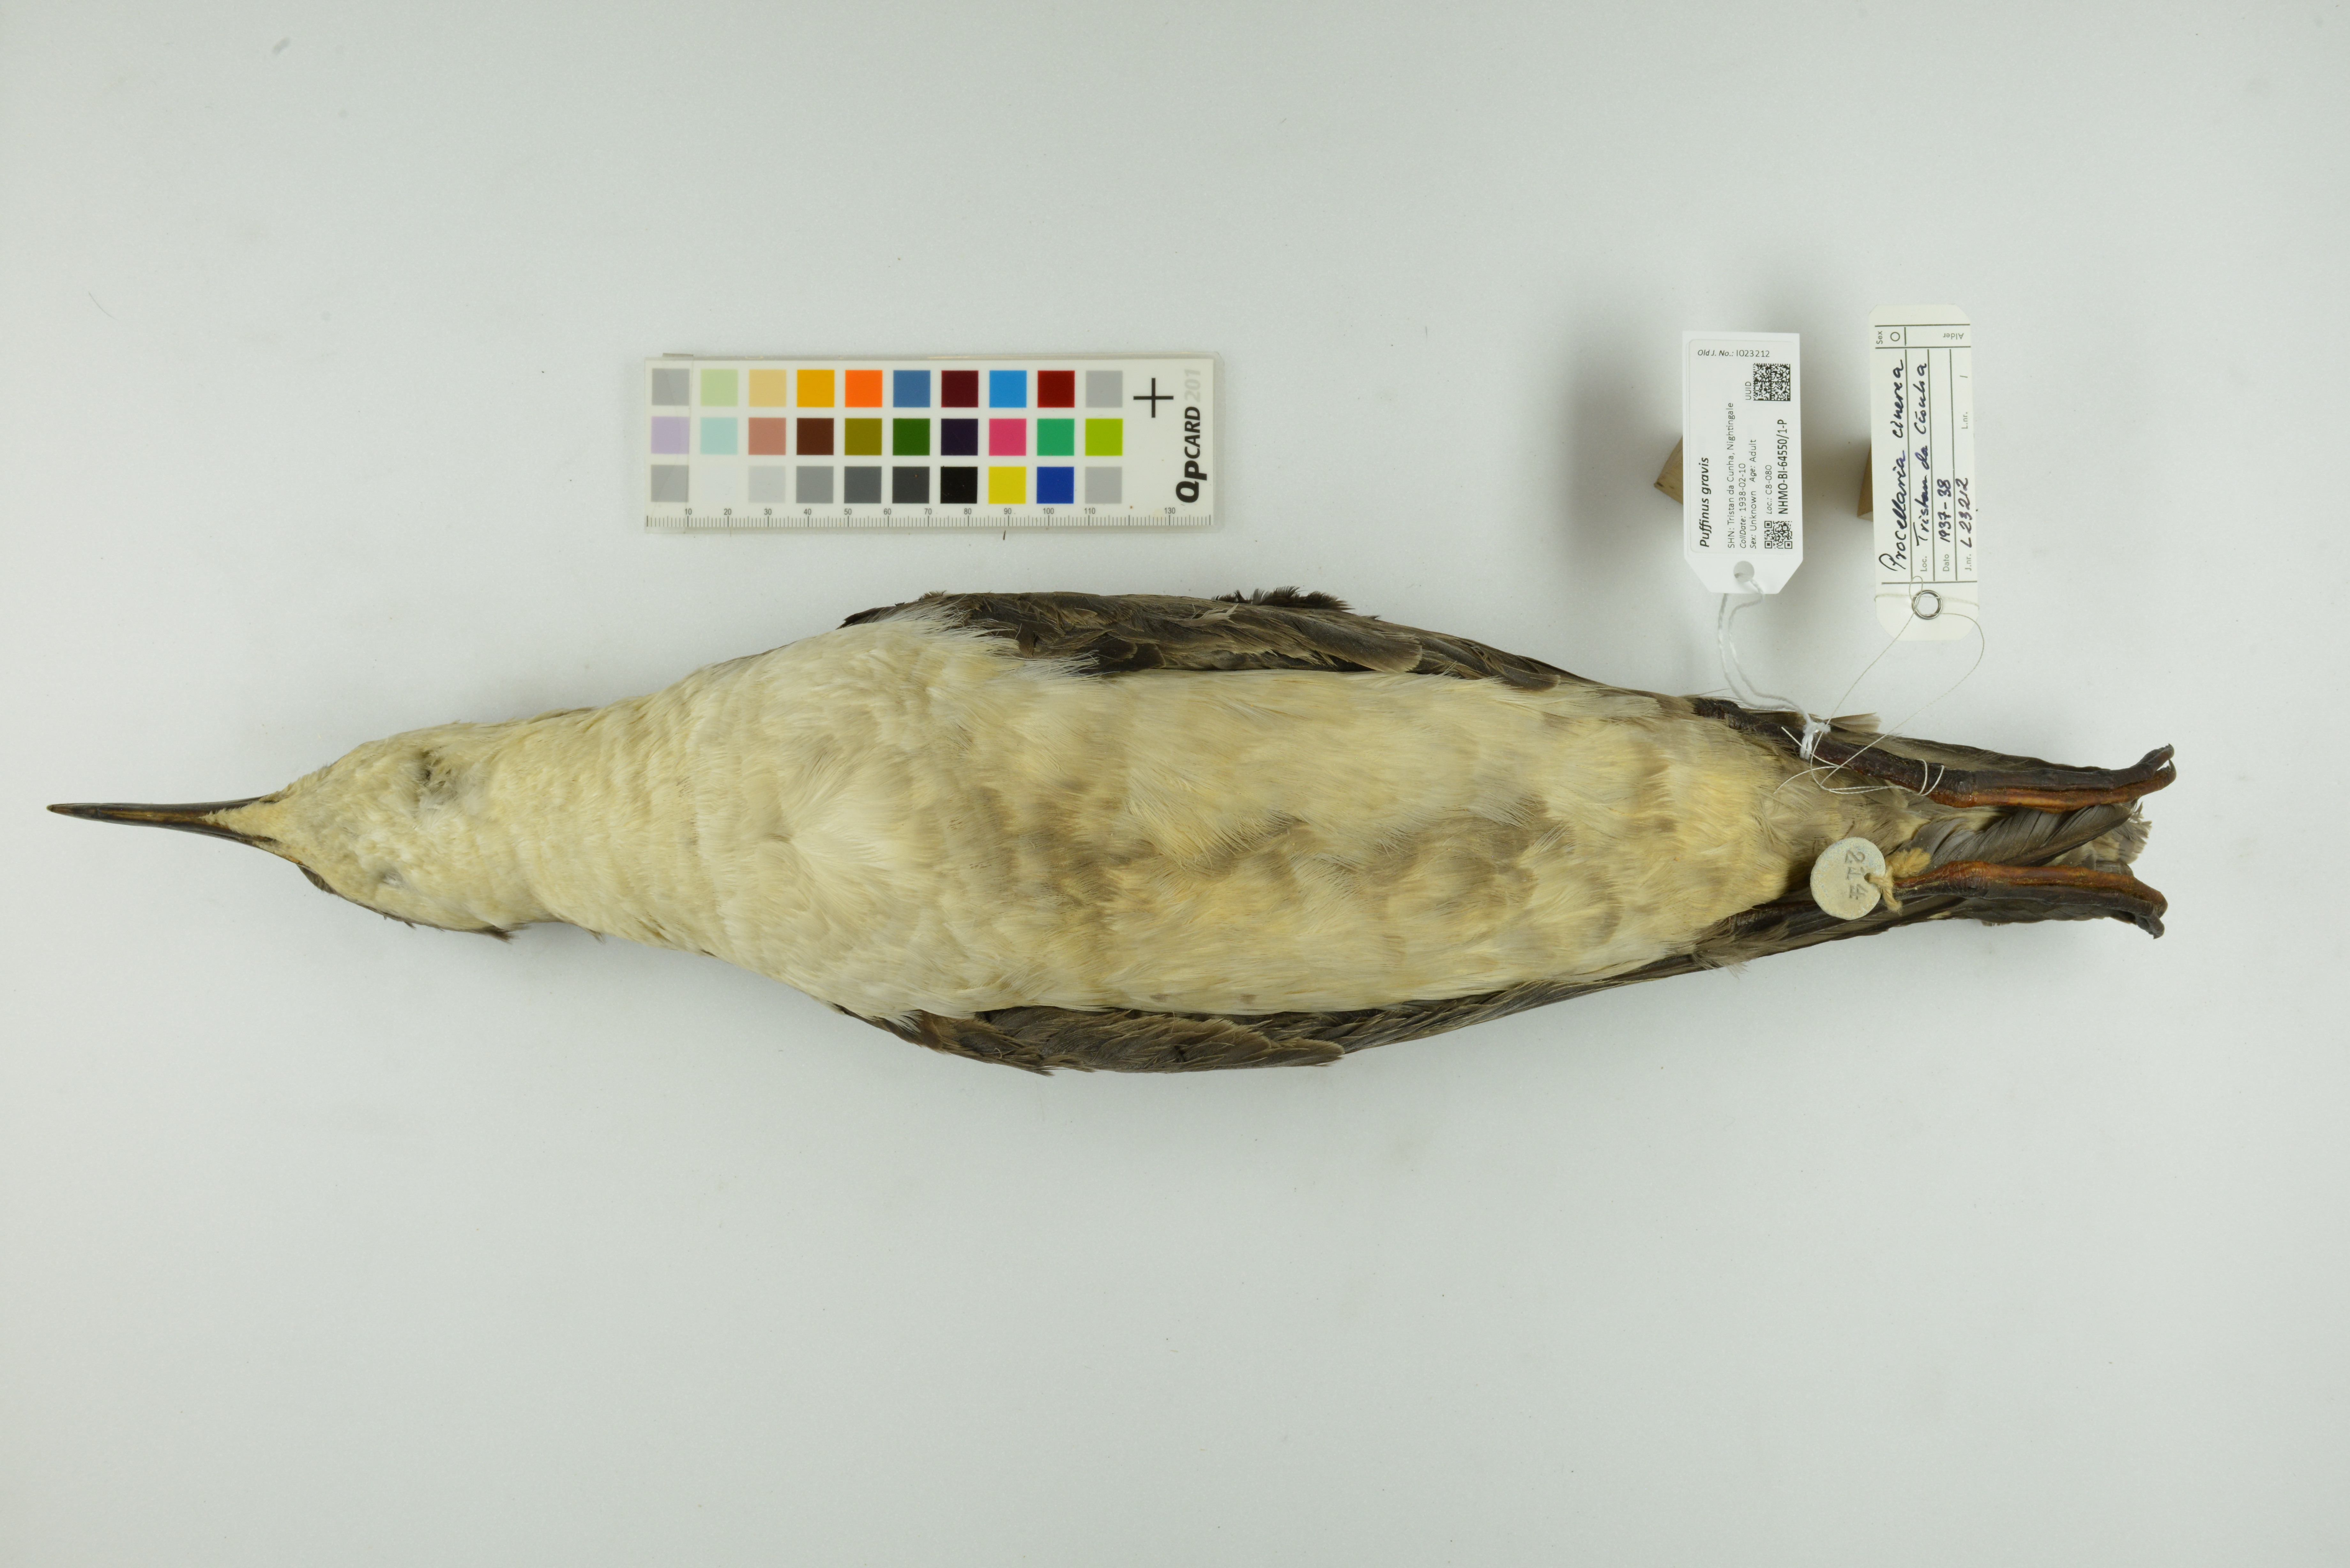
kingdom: Animalia
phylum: Chordata
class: Aves
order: Procellariiformes
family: Procellariidae
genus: Puffinus
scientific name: Puffinus gravis
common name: Great shearwater
